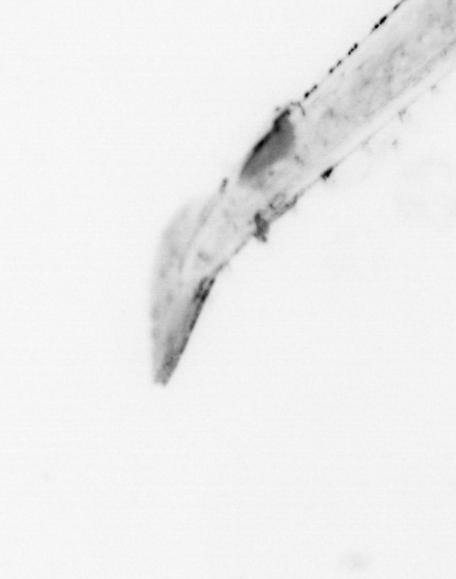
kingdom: Animalia
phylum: Chaetognatha
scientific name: Chaetognatha
